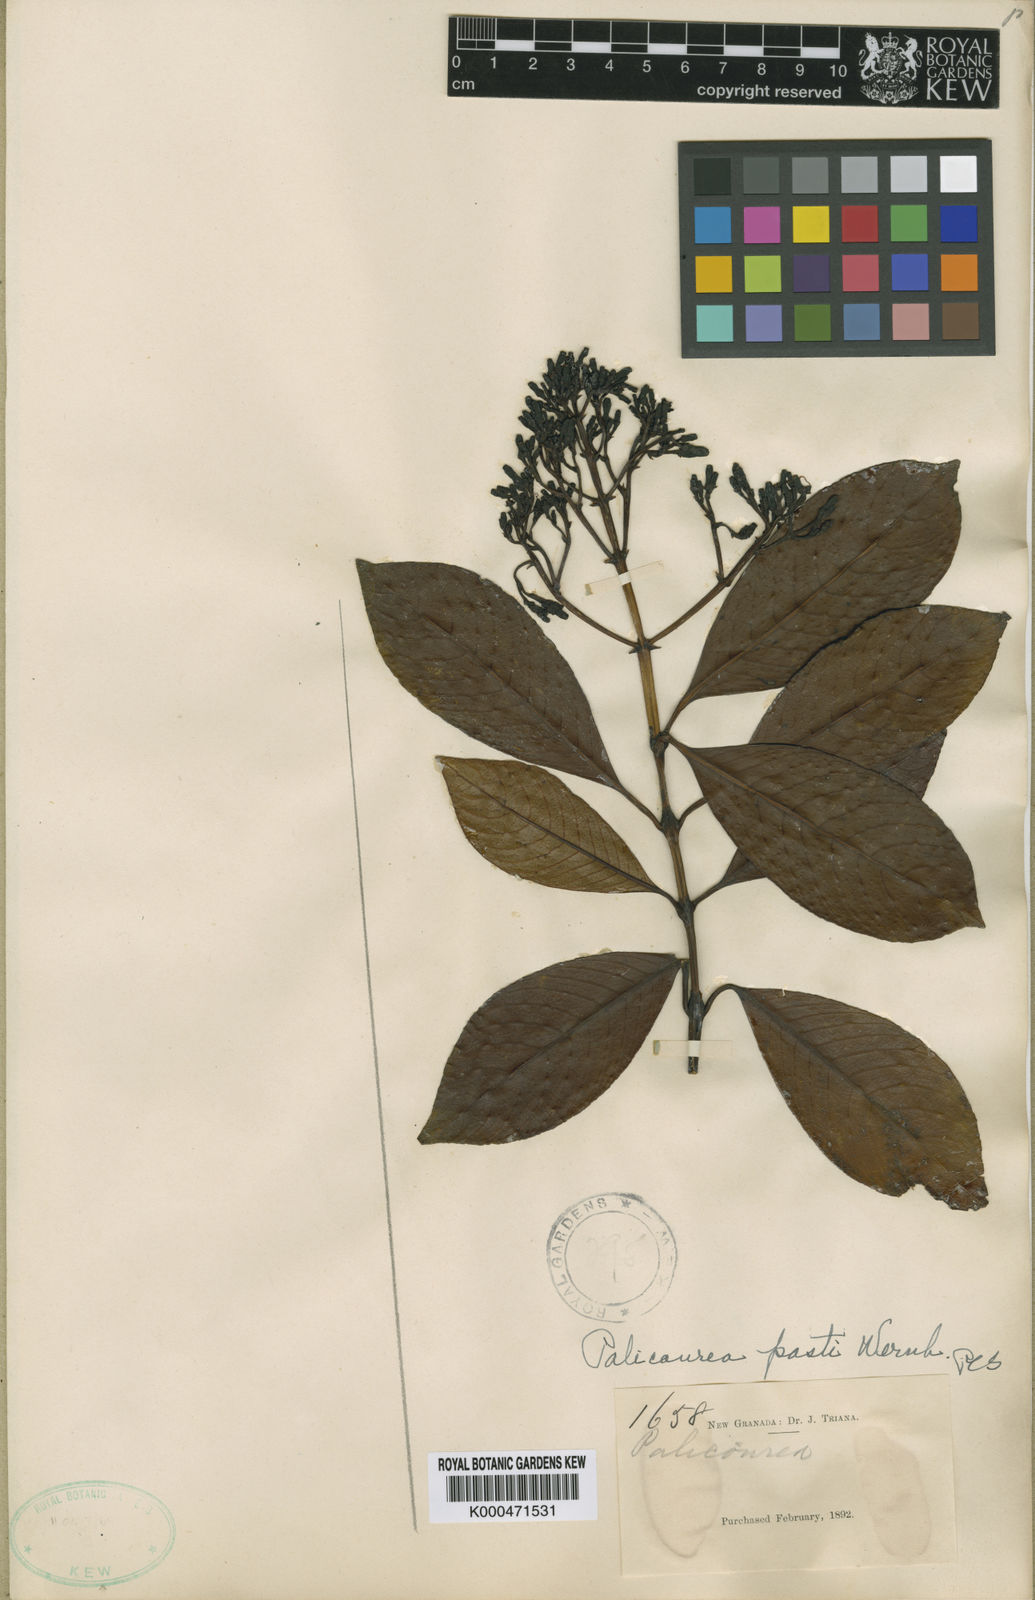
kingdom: Plantae
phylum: Tracheophyta
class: Magnoliopsida
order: Gentianales
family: Rubiaceae
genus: Palicourea
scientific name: Palicourea apicata
